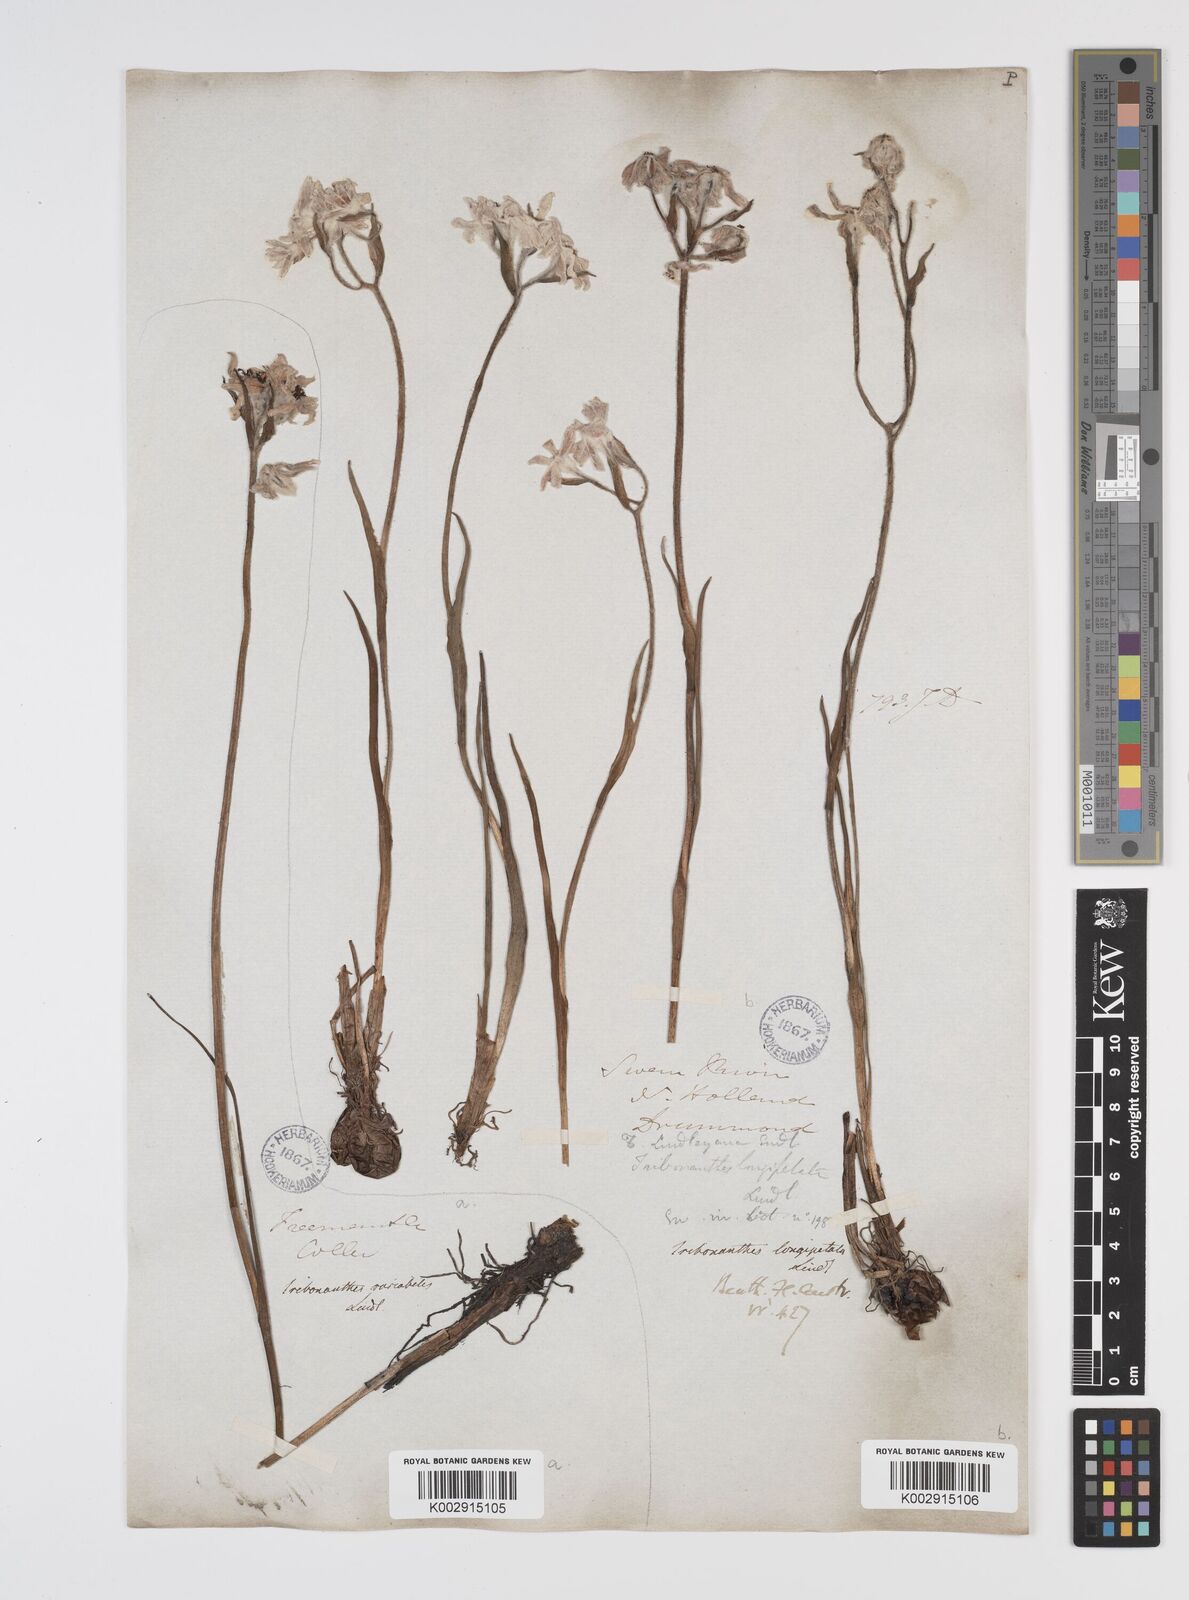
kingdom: Plantae
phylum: Tracheophyta
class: Liliopsida
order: Commelinales
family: Haemodoraceae
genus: Tribonanthes
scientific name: Tribonanthes longipetala
